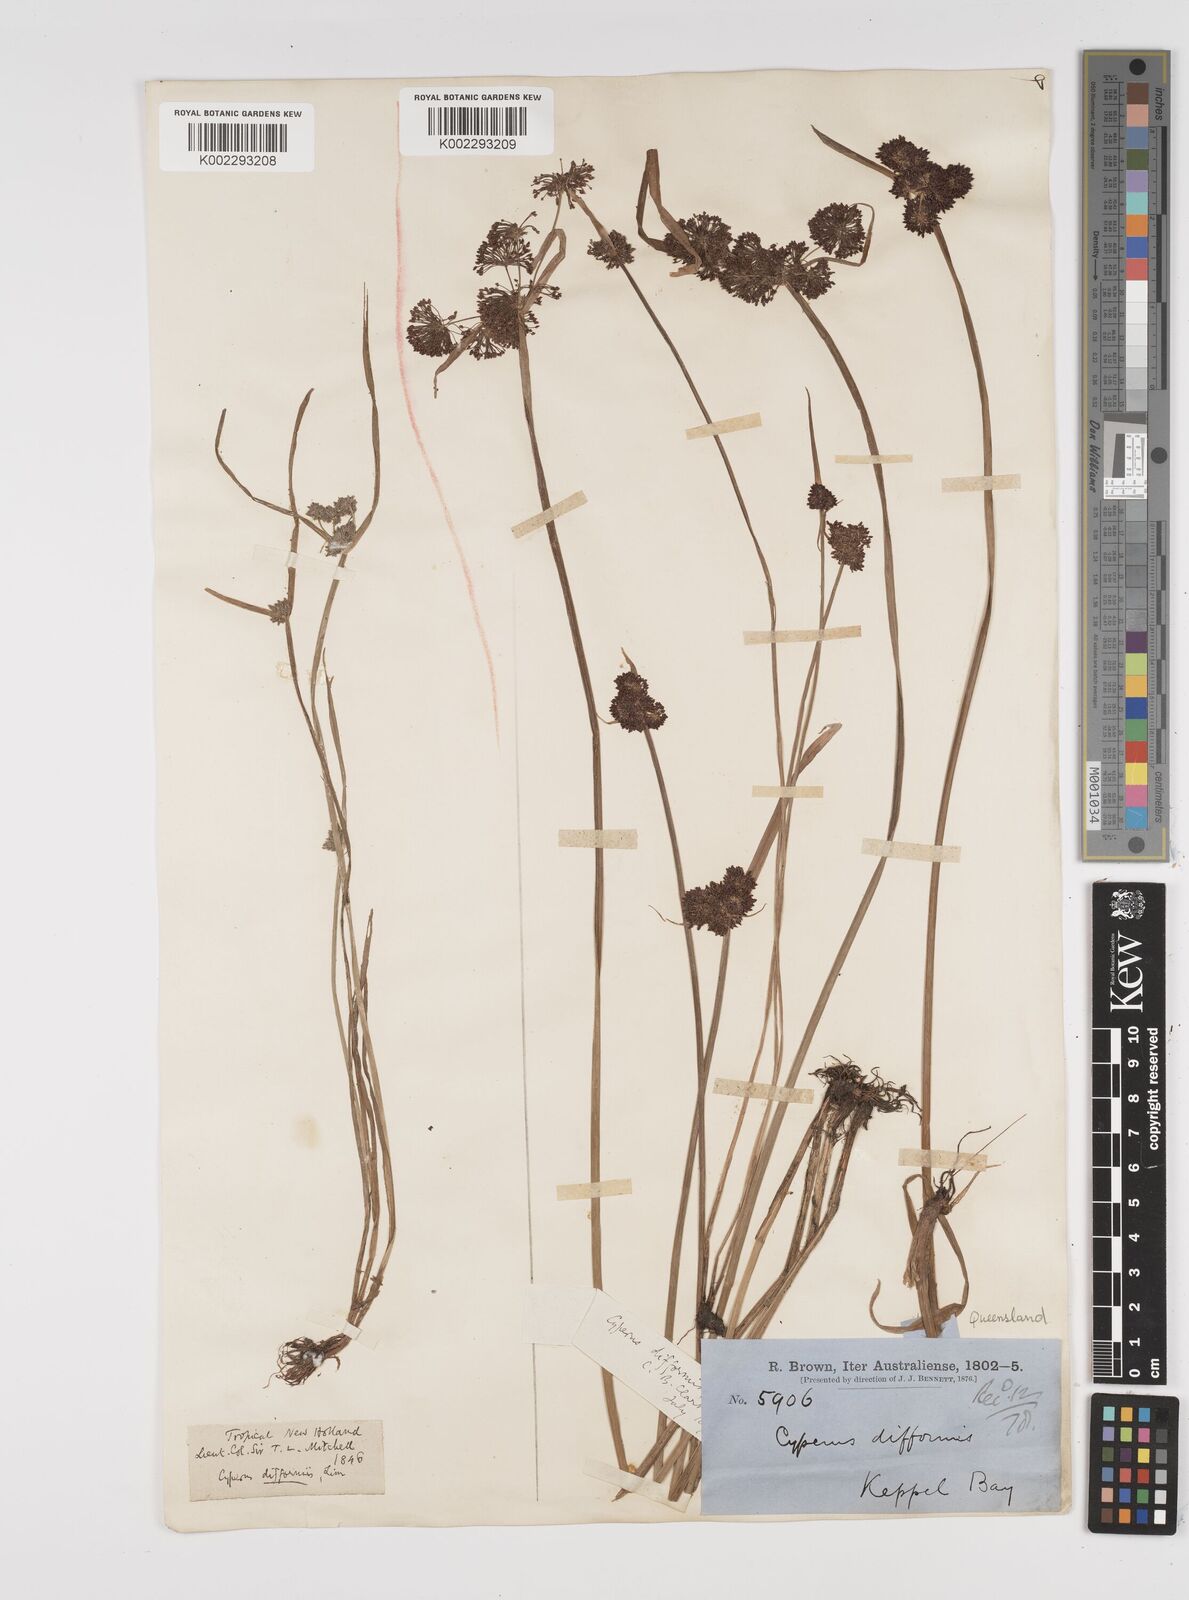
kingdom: Plantae
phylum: Tracheophyta
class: Liliopsida
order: Poales
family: Cyperaceae
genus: Cyperus
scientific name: Cyperus difformis
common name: Variable flatsedge
